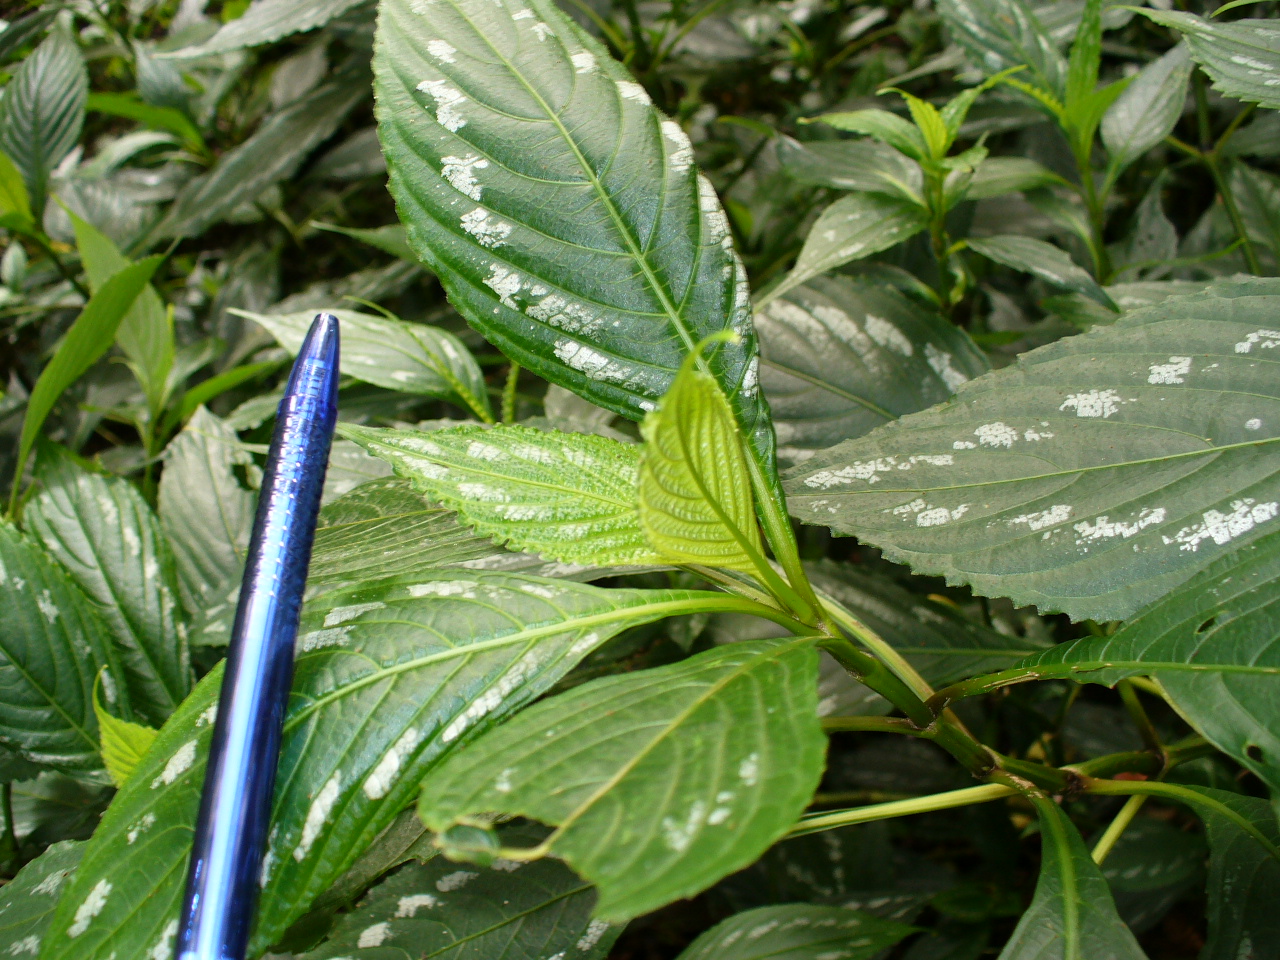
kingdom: Plantae
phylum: Tracheophyta
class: Magnoliopsida
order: Lamiales
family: Acanthaceae
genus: Strobilanthes
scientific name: Strobilanthes lactata
